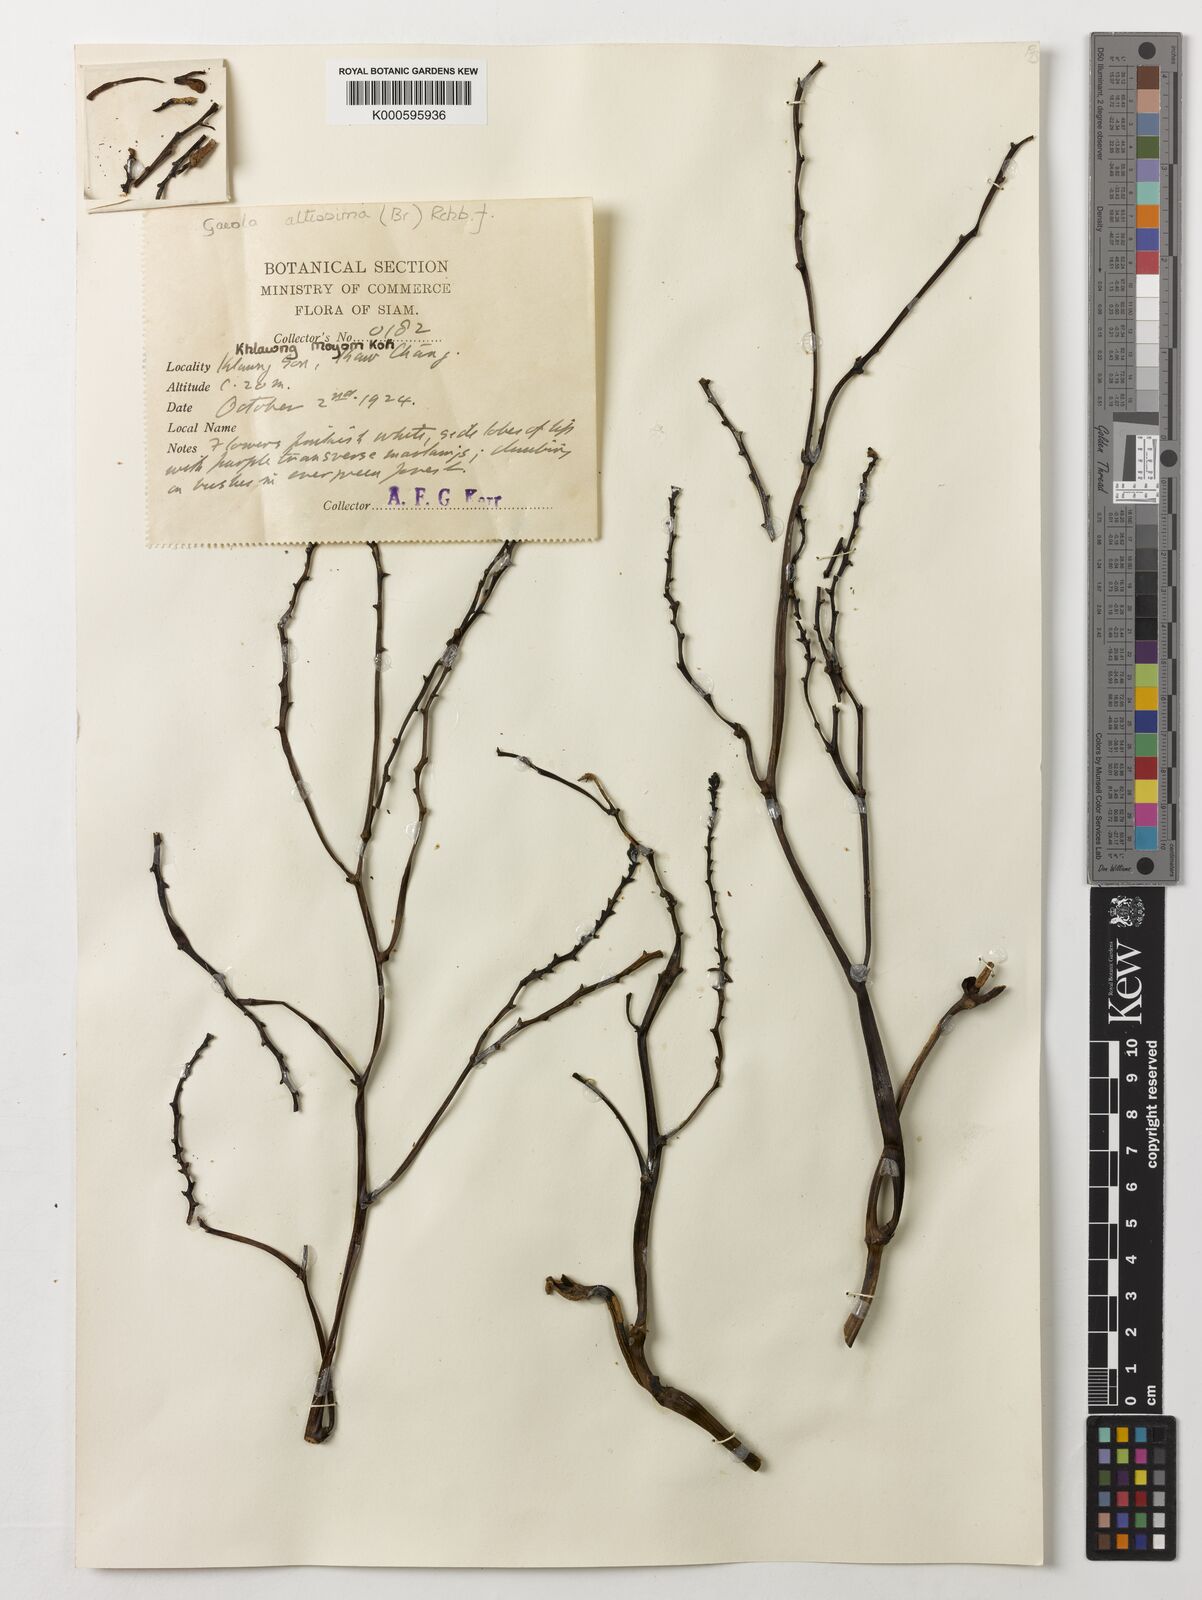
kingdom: Plantae
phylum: Tracheophyta
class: Liliopsida
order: Asparagales
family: Orchidaceae
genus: Erythrorchis
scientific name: Erythrorchis altissima
